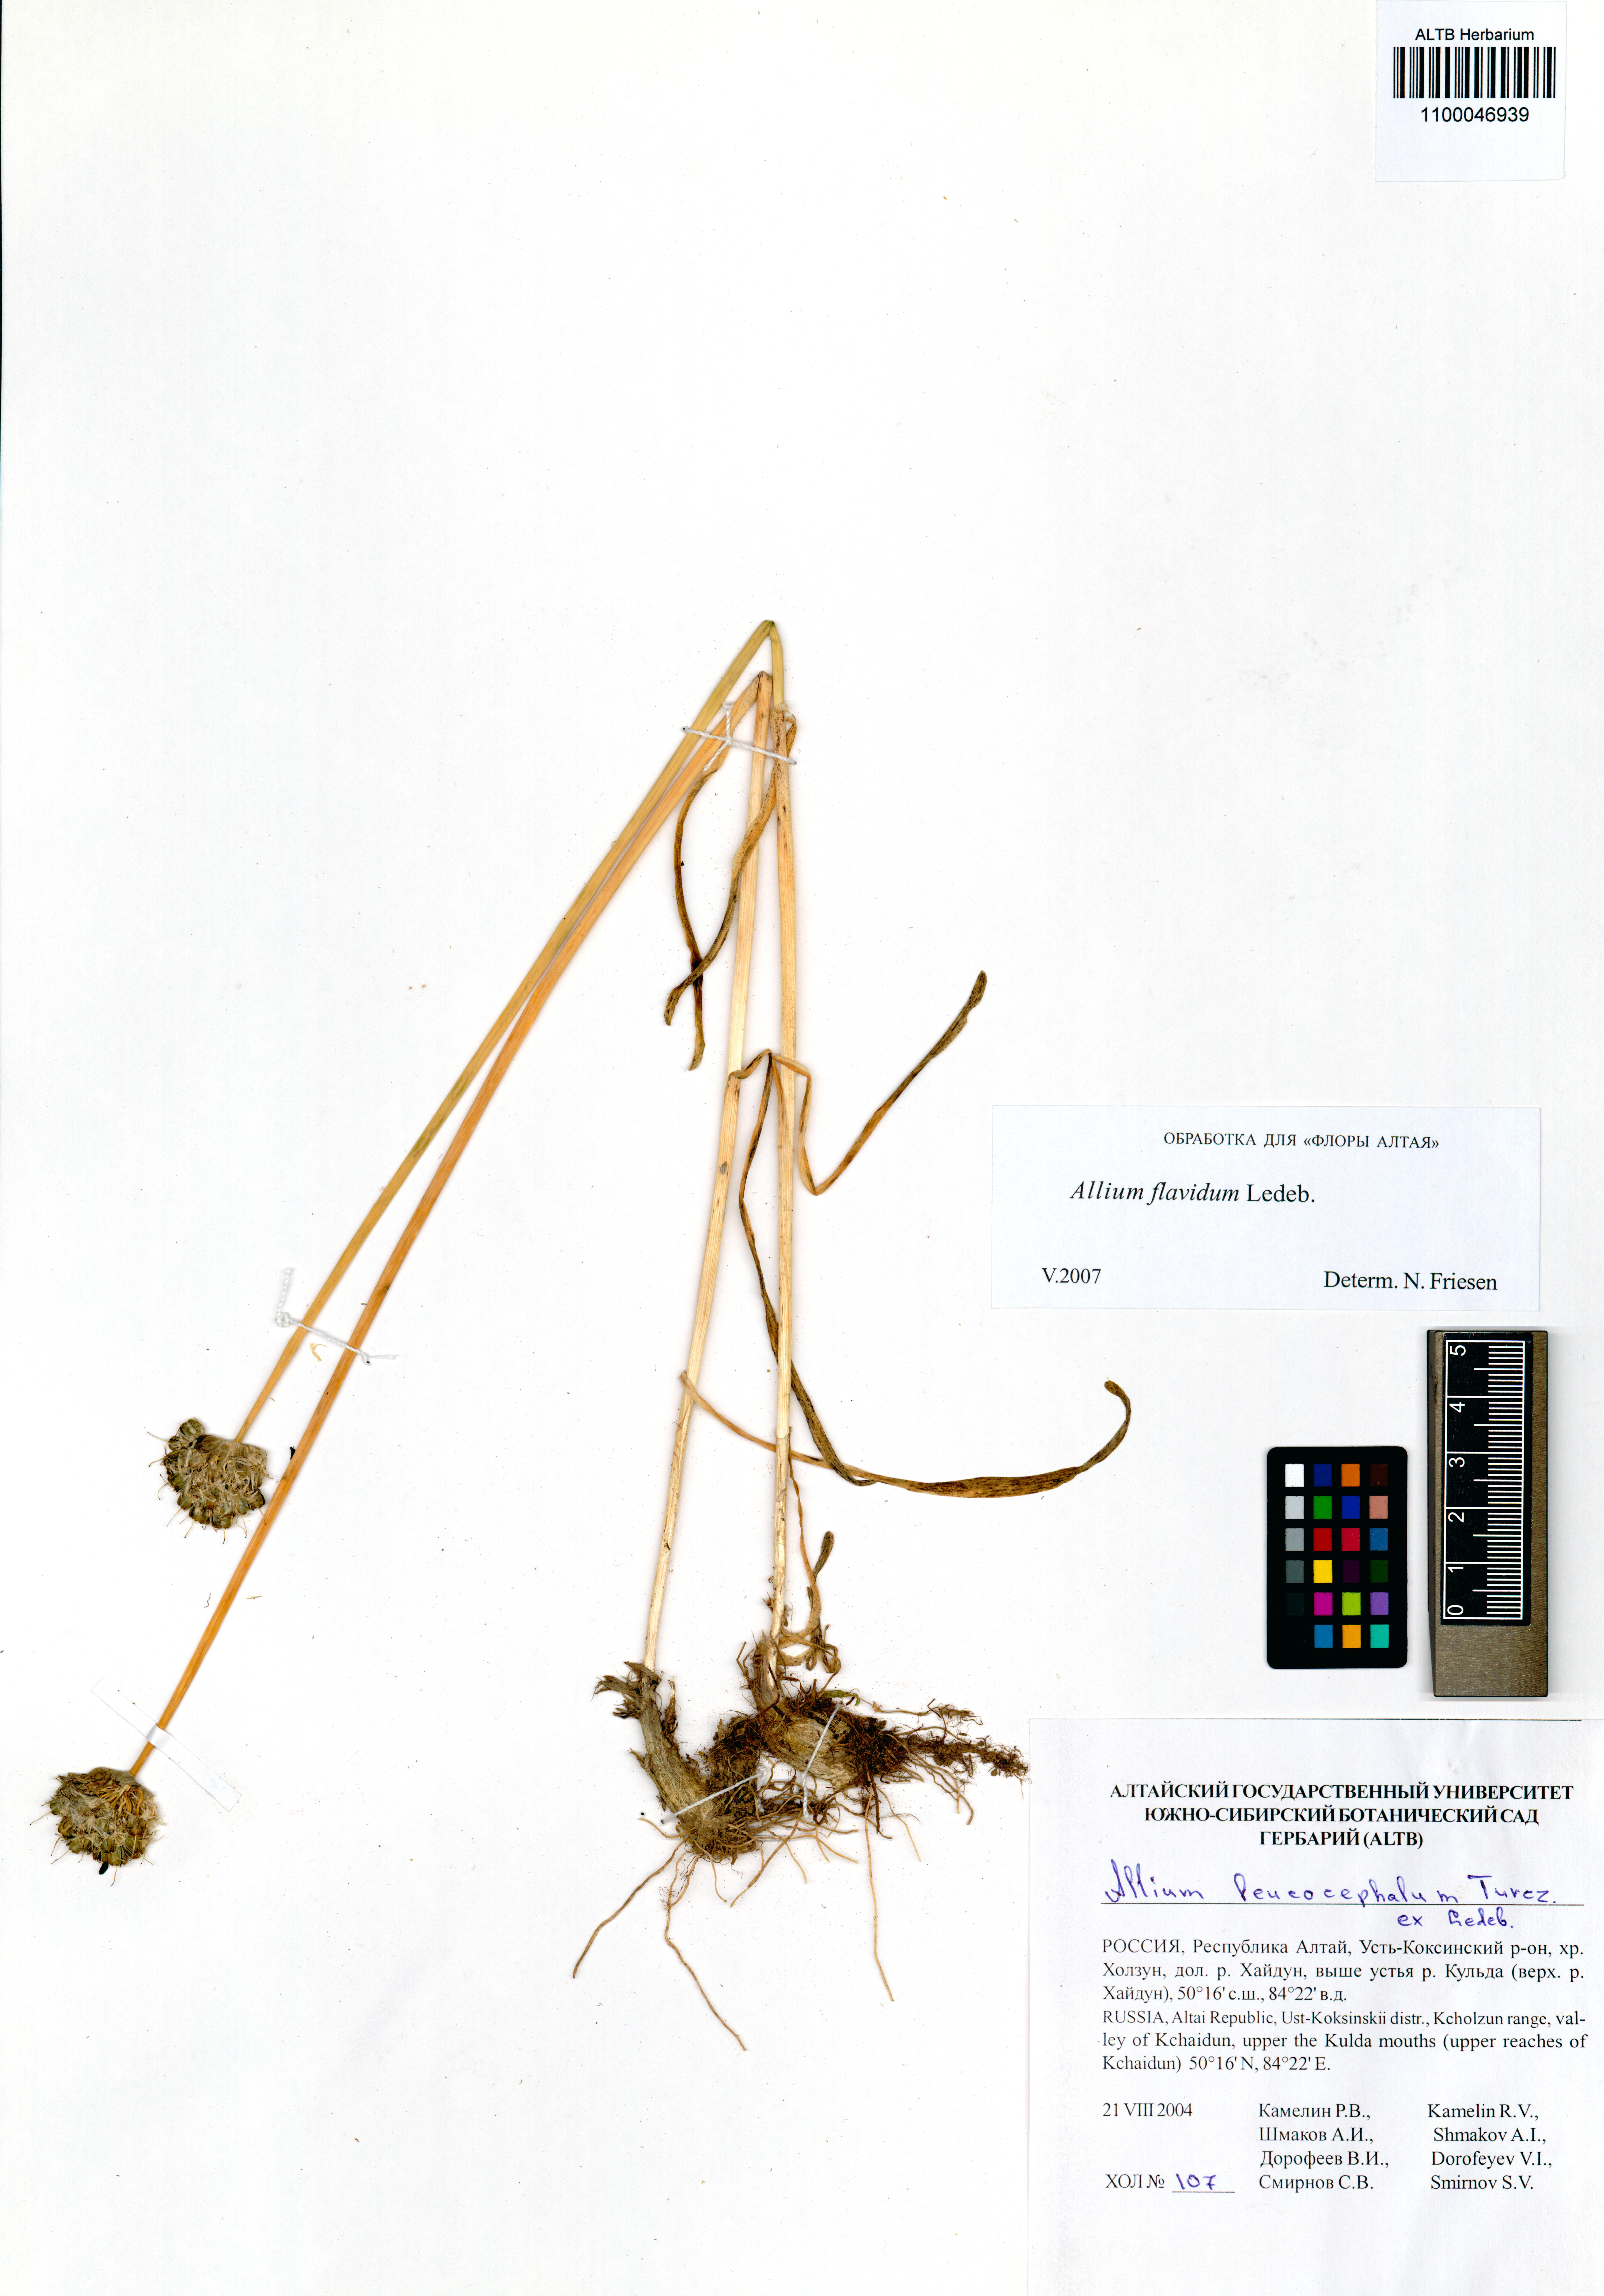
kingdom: Plantae
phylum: Tracheophyta
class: Liliopsida
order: Asparagales
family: Amaryllidaceae
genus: Allium
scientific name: Allium flavidum
